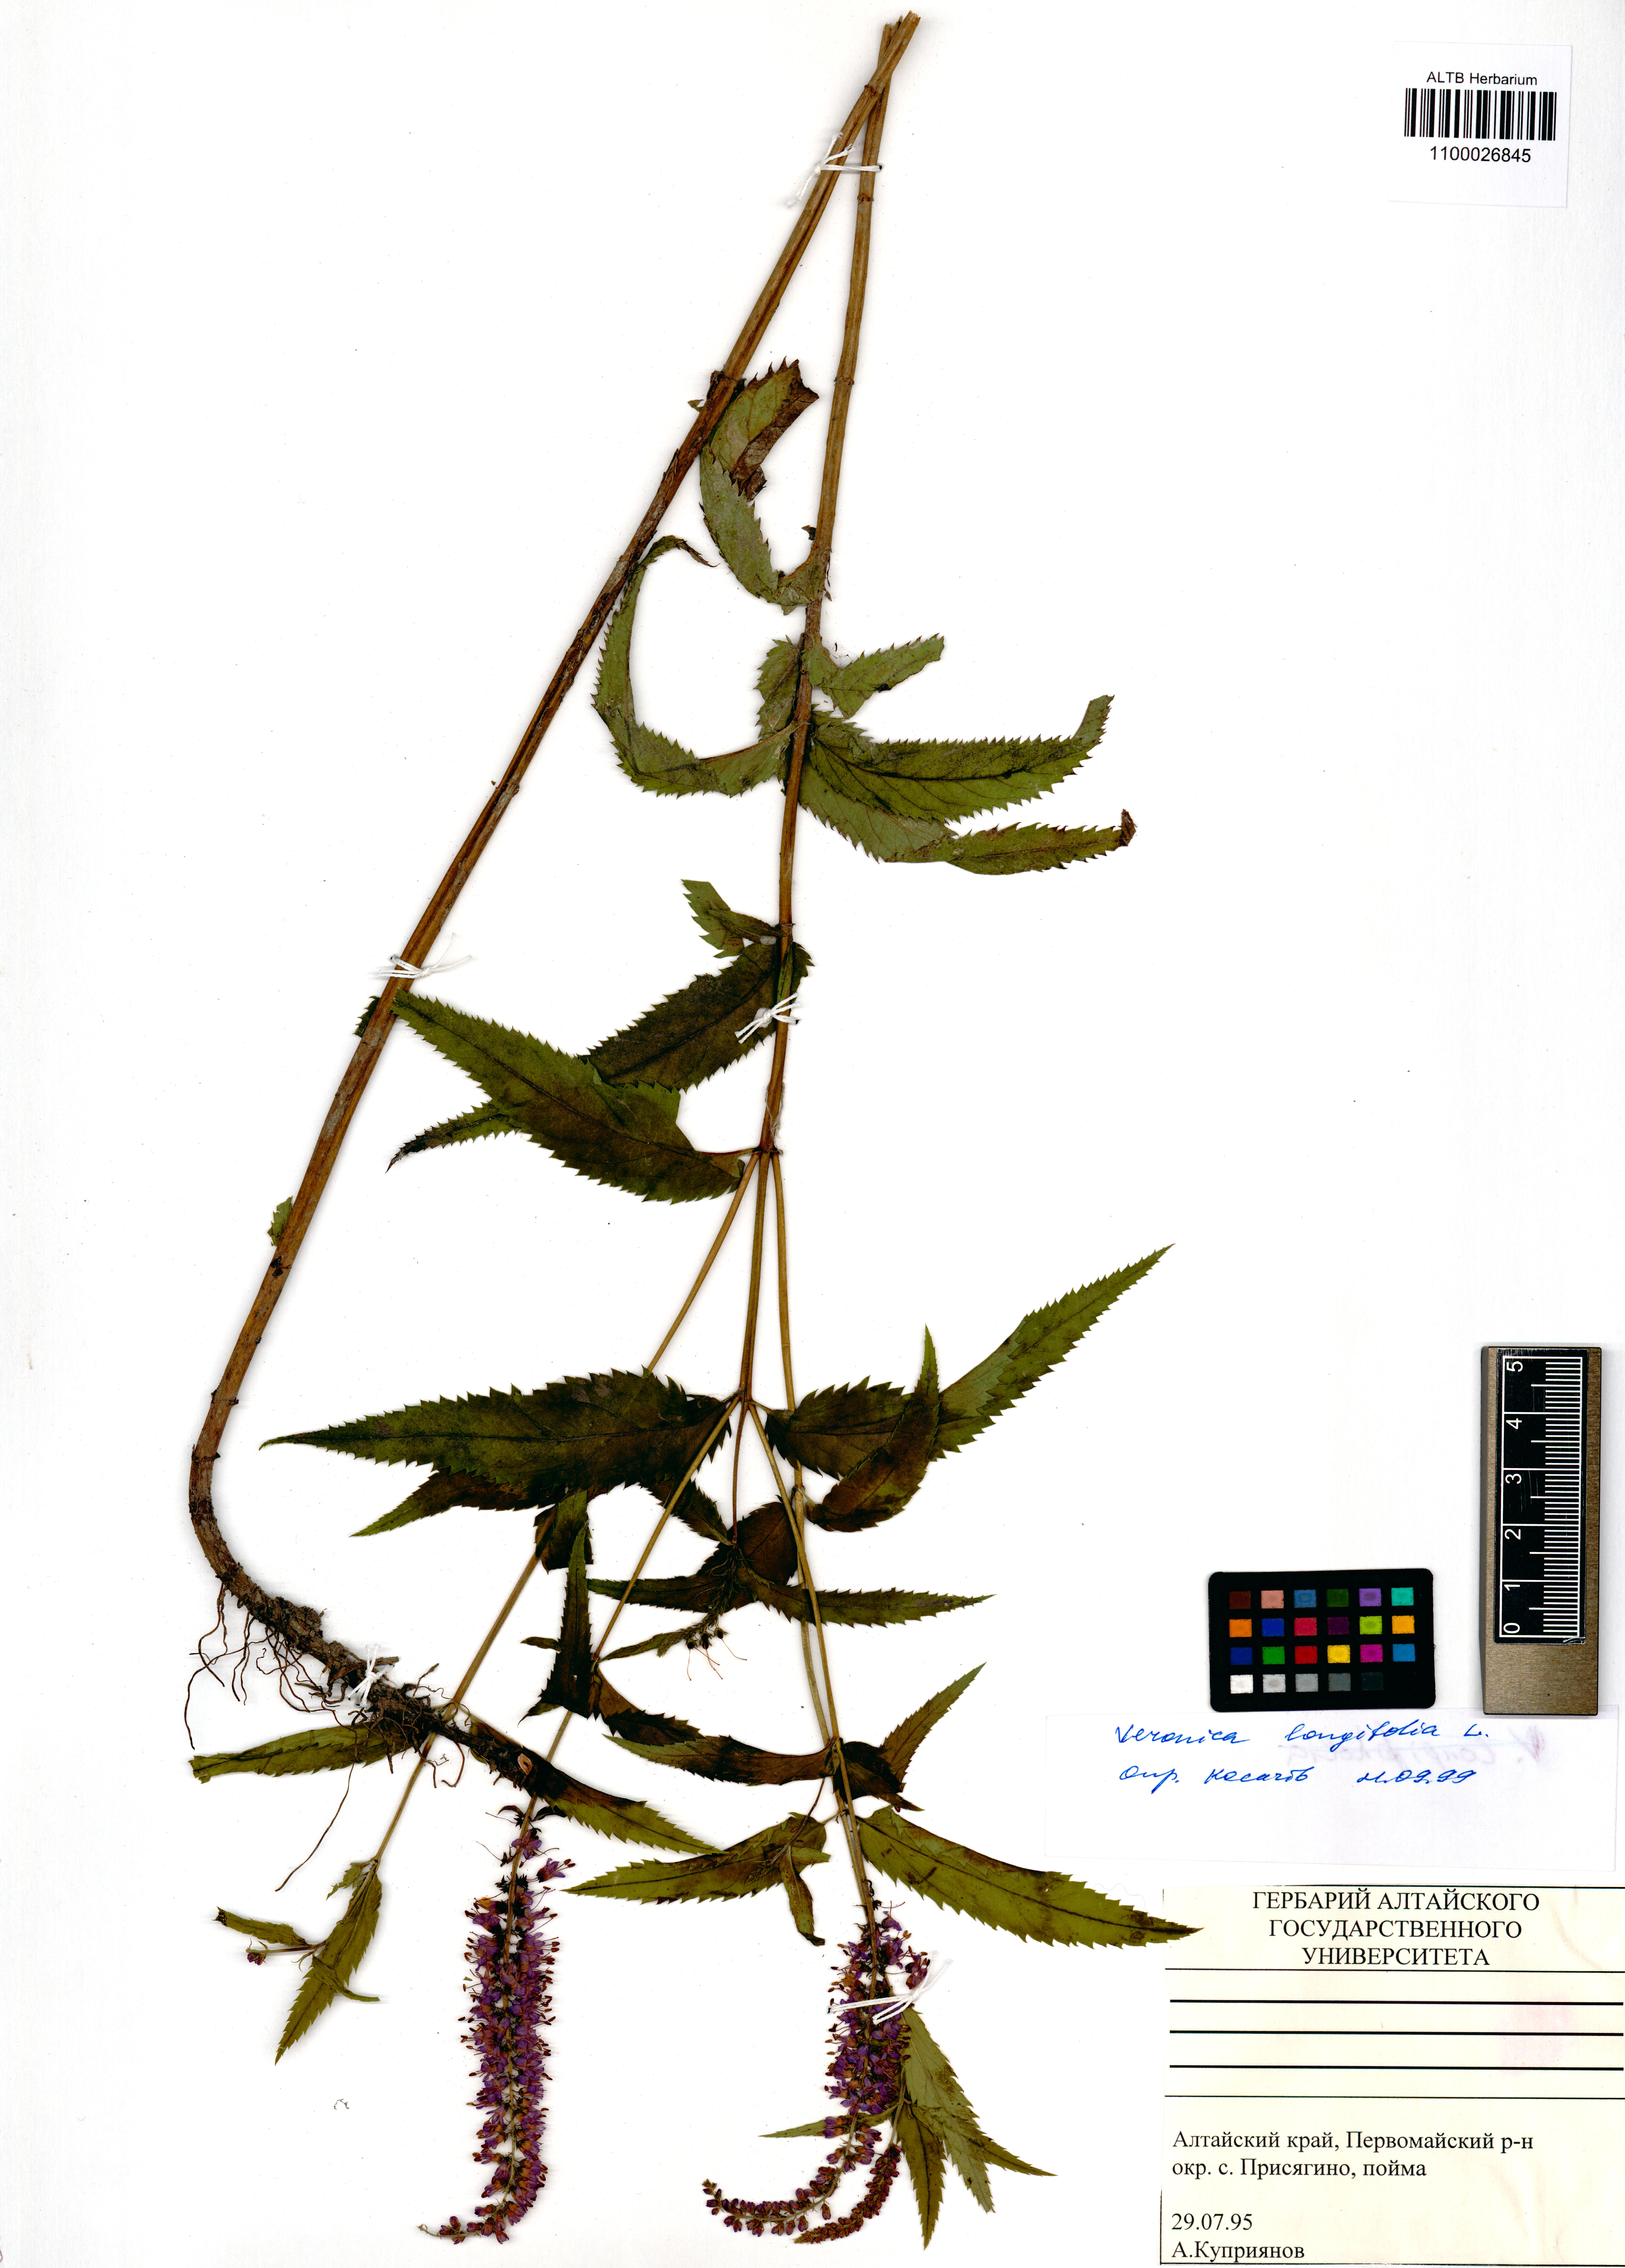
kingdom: Plantae
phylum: Tracheophyta
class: Magnoliopsida
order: Lamiales
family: Plantaginaceae
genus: Veronica
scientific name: Veronica longifolia
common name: Garden speedwell
